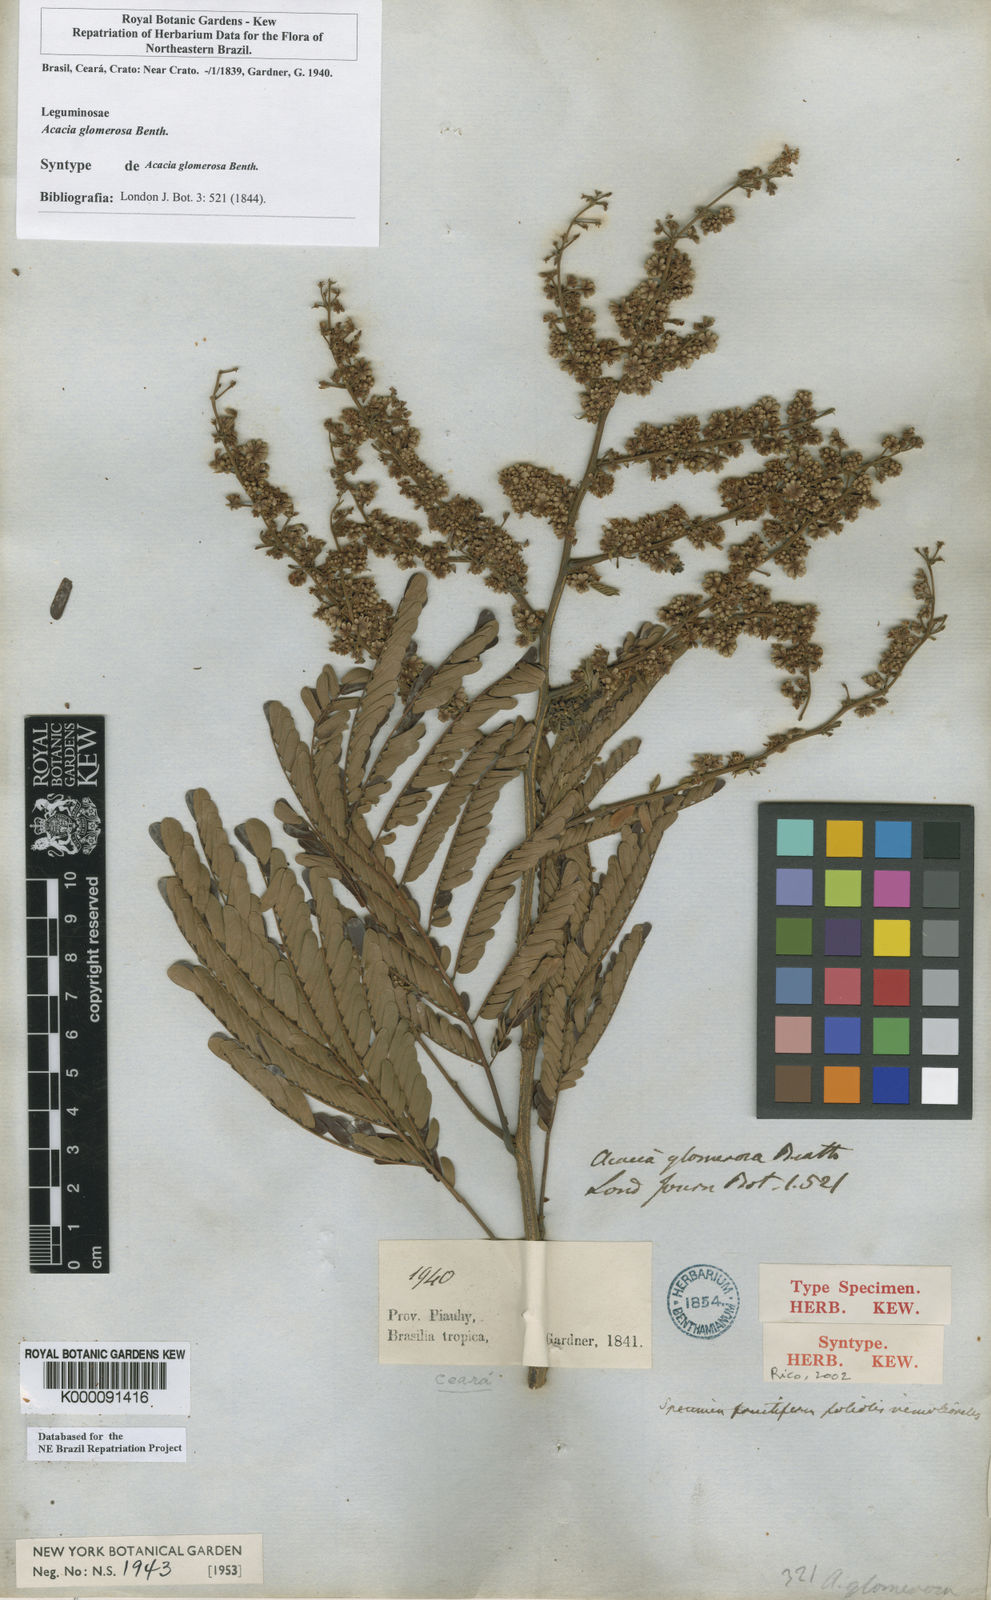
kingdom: Plantae
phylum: Tracheophyta
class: Magnoliopsida
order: Fabales
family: Fabaceae
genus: Senegalia
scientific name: Senegalia polyphylla
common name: White-tamarind
